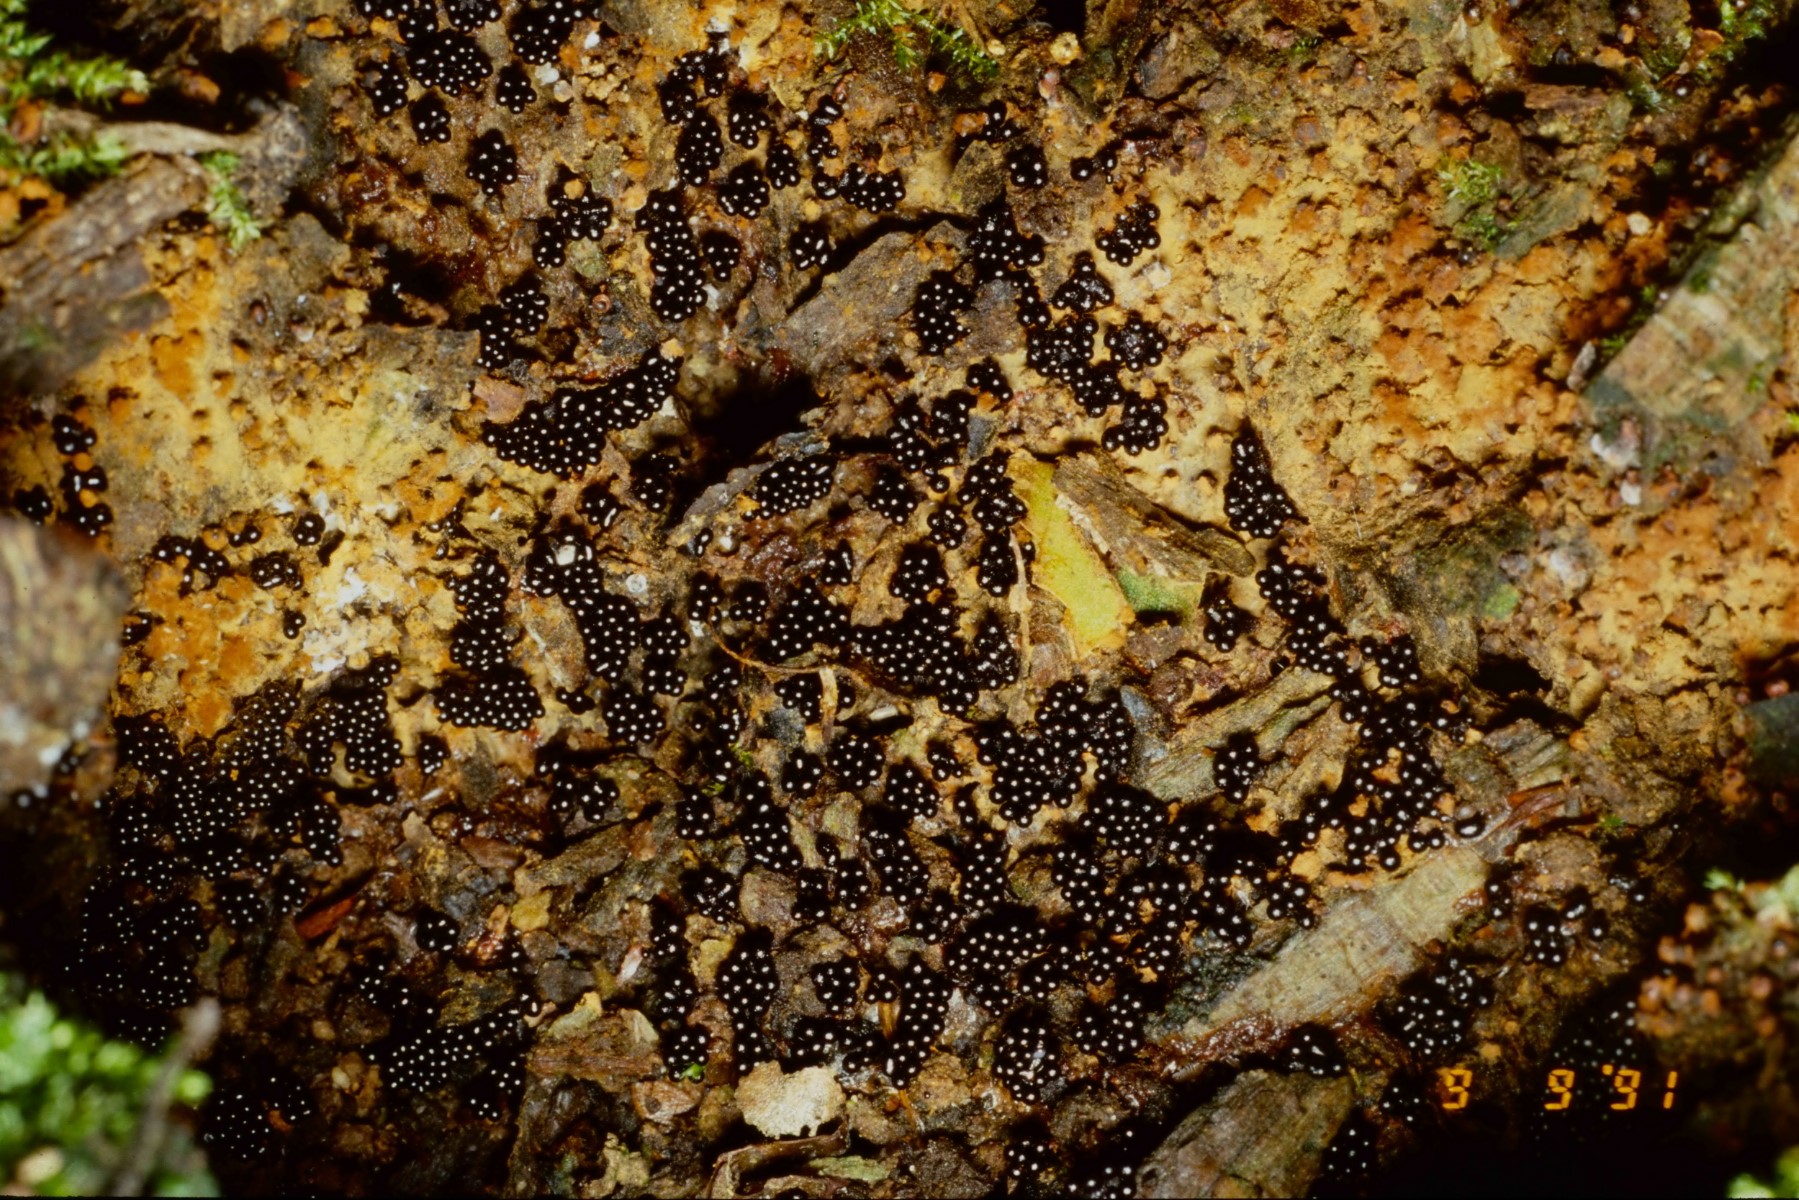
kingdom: Protozoa
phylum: Mycetozoa
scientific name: Mycetozoa
